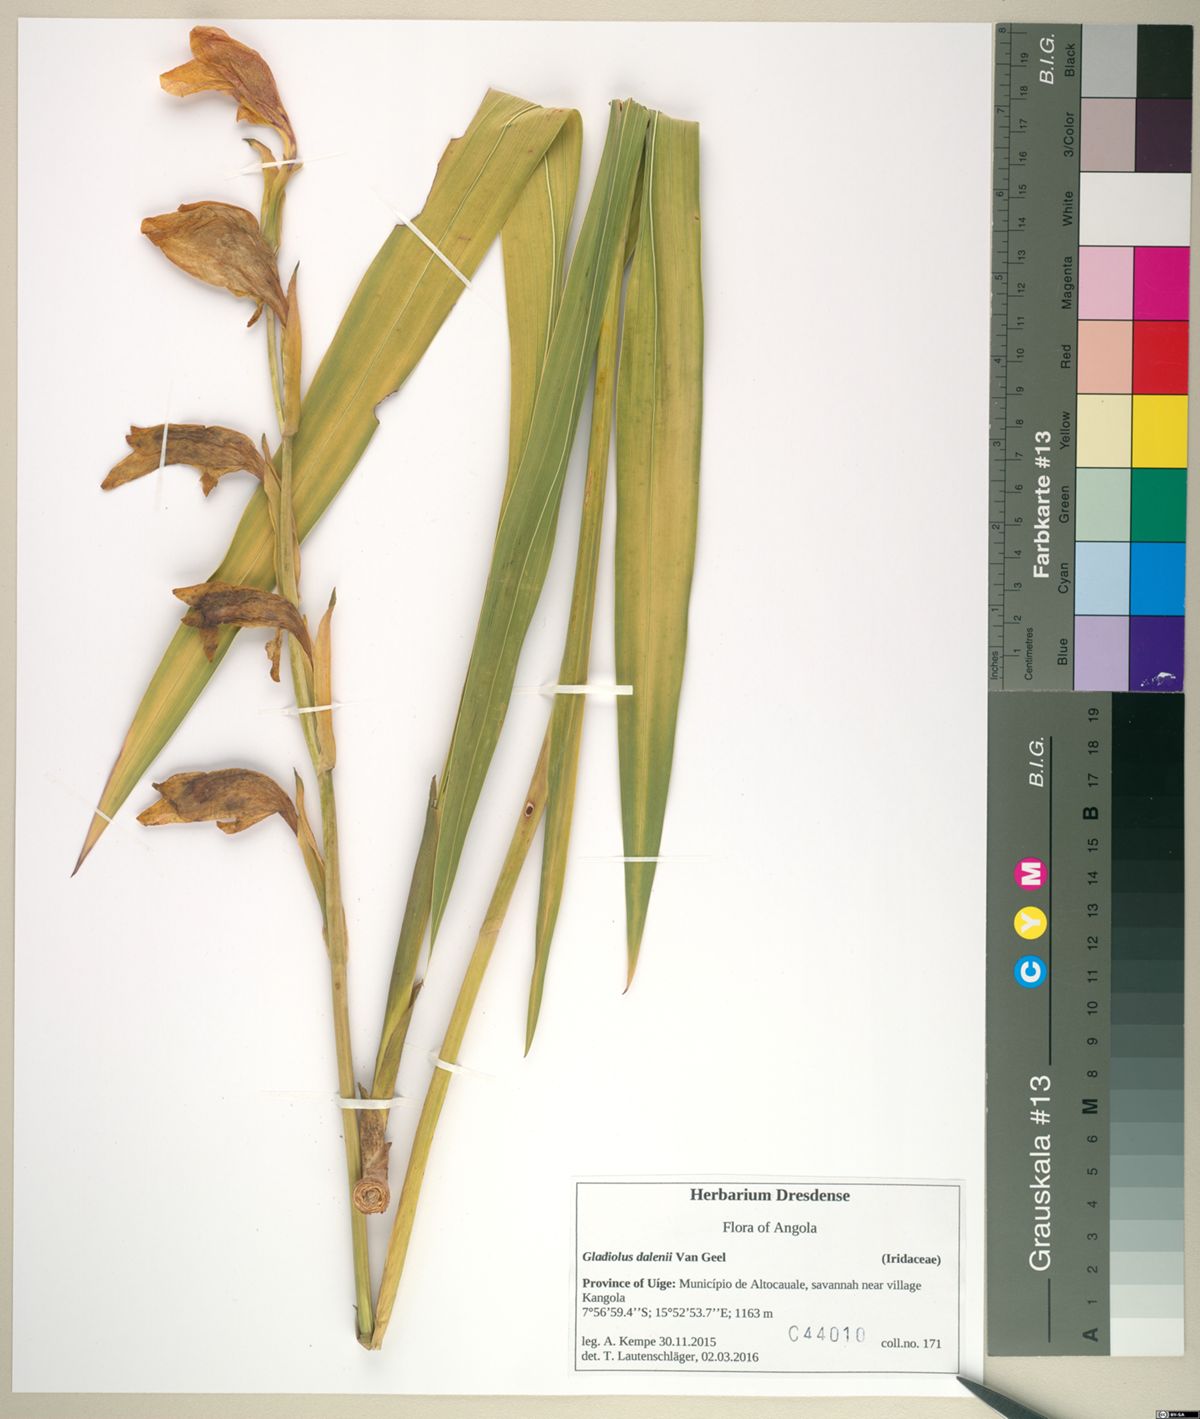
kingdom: Plantae
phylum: Tracheophyta
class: Liliopsida
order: Asparagales
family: Iridaceae
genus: Gladiolus
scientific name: Gladiolus dalenii
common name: Cornflag
